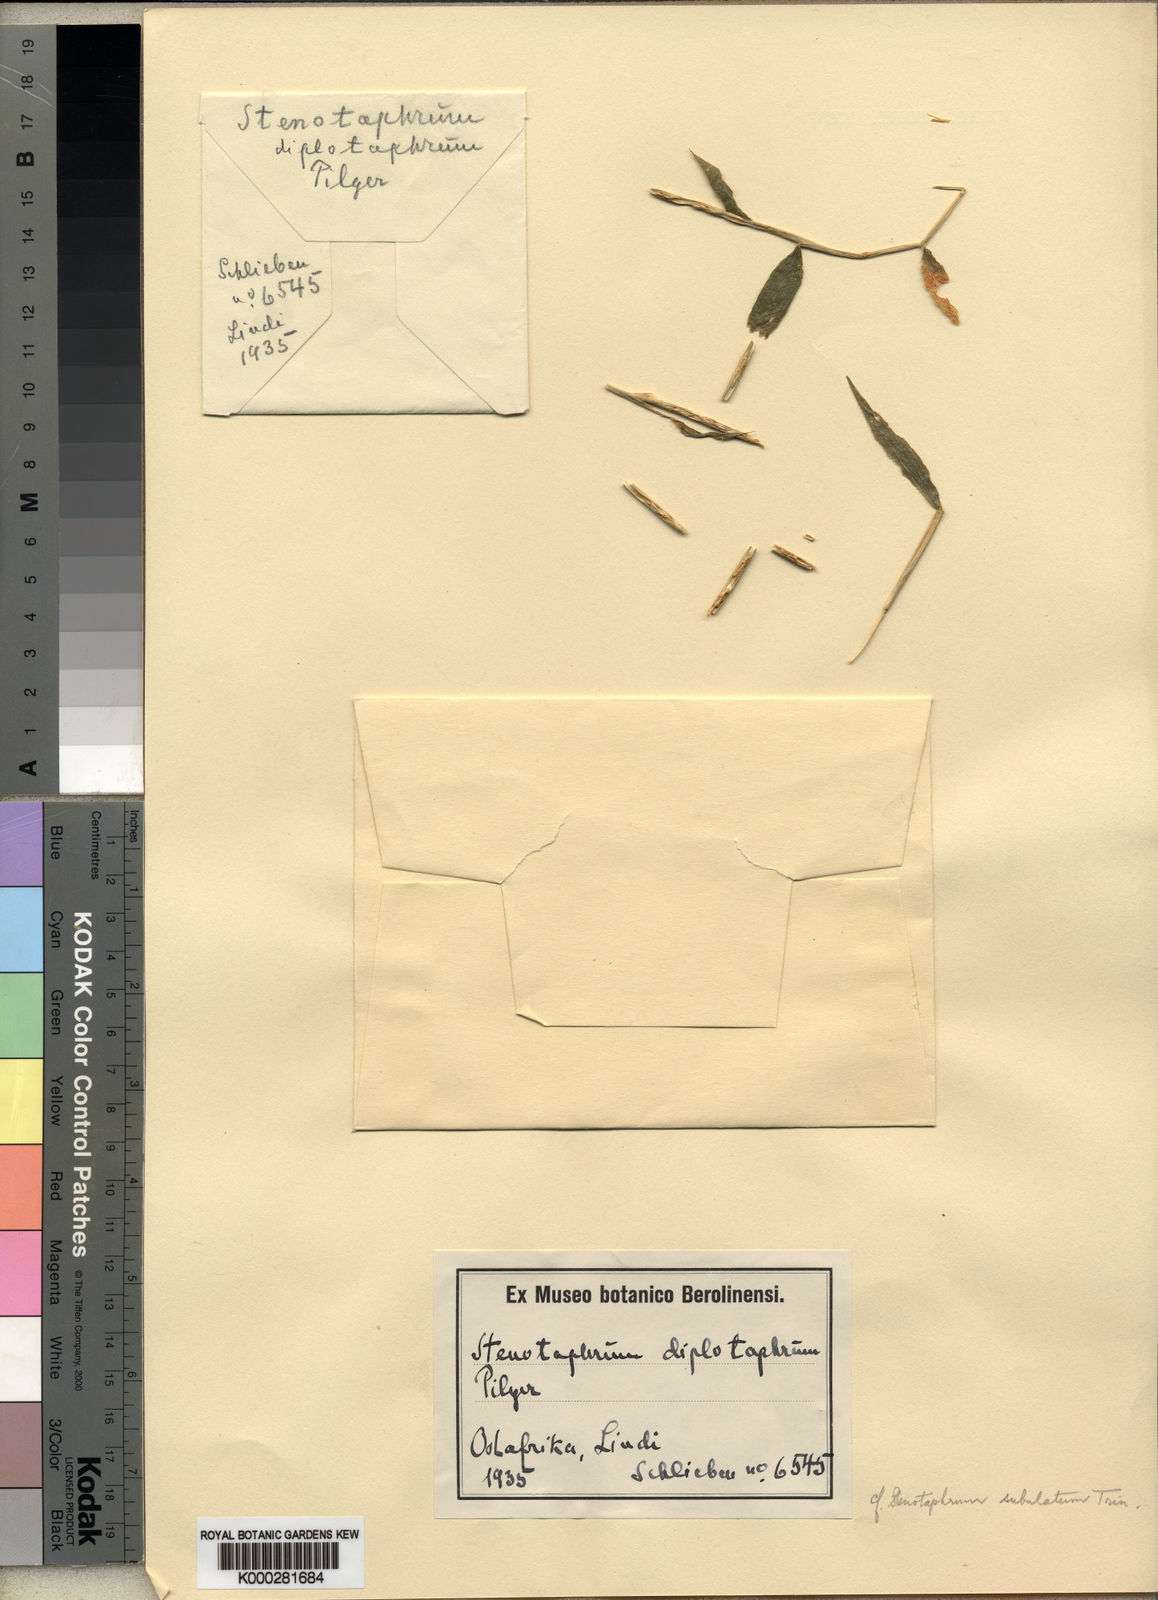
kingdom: Plantae
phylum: Tracheophyta
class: Liliopsida
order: Poales
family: Poaceae
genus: Stenotaphrum
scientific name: Stenotaphrum micranthum
